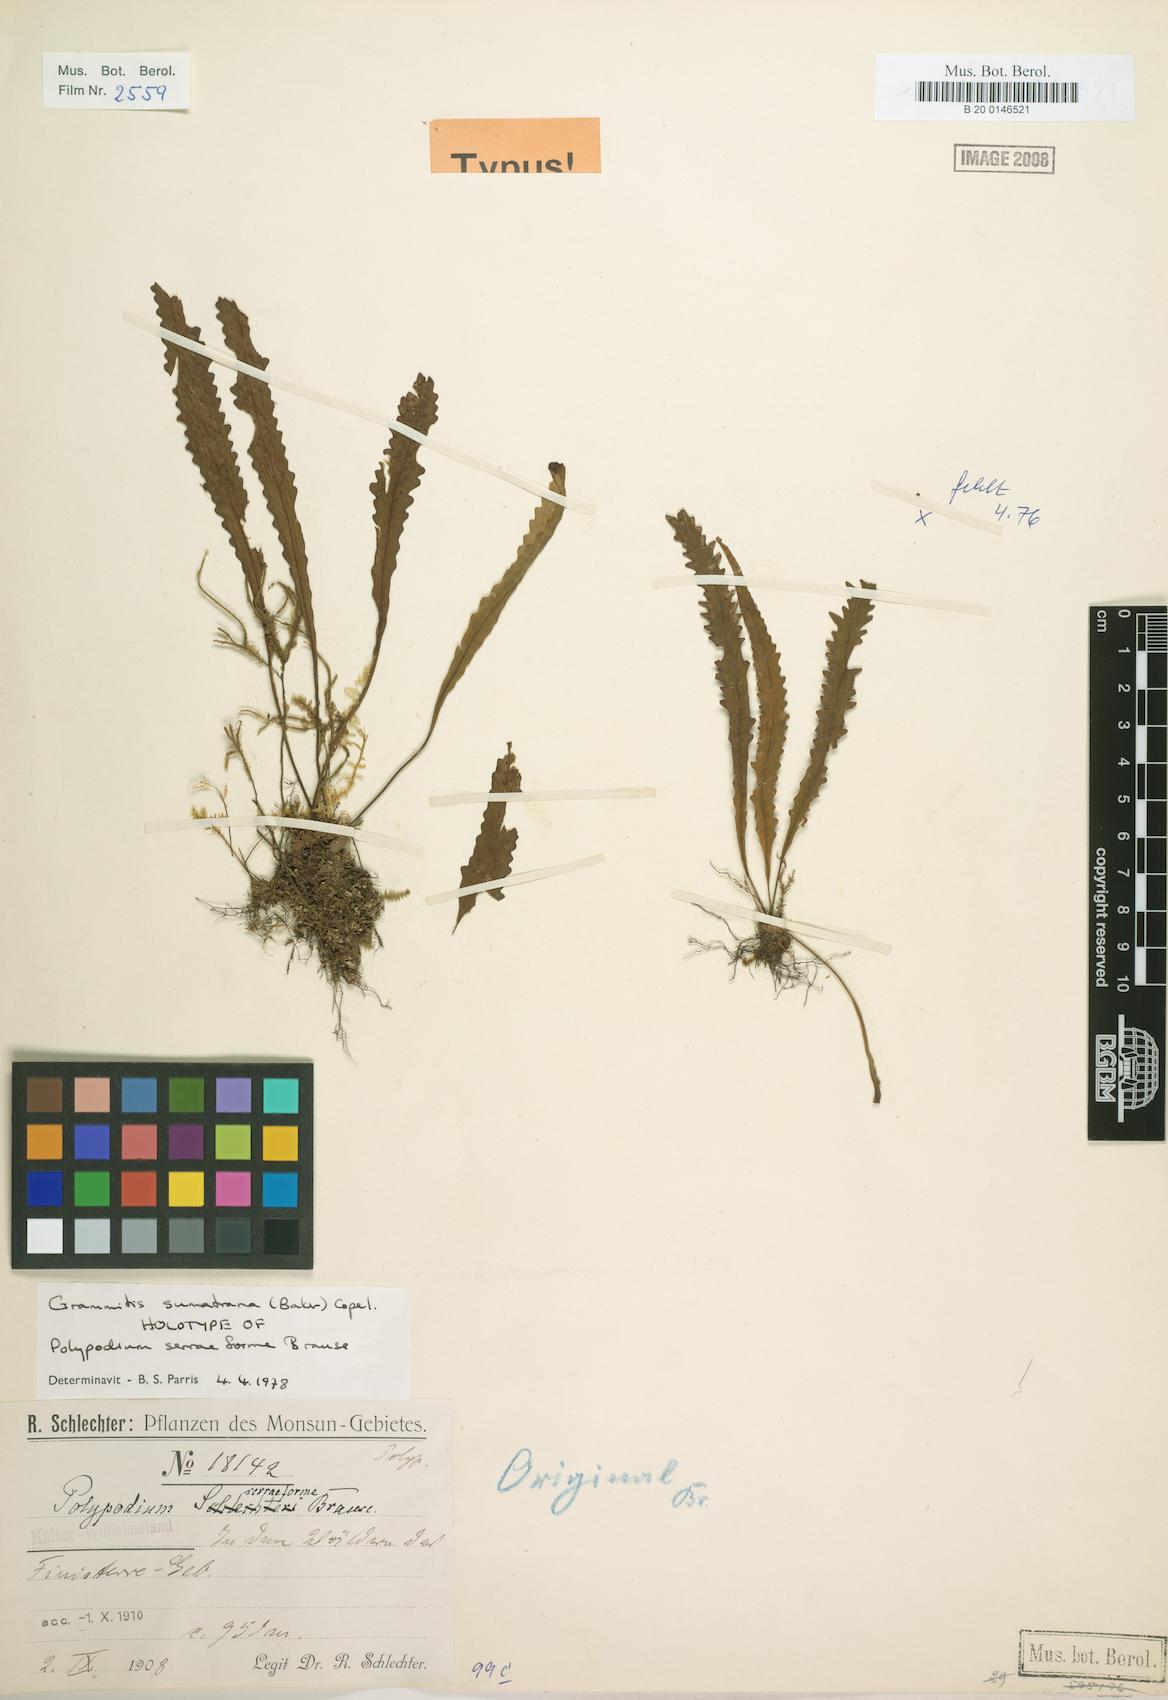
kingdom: Plantae
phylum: Tracheophyta
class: Polypodiopsida
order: Polypodiales
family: Polypodiaceae
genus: Oreogrammitis
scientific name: Oreogrammitis sumatrana
